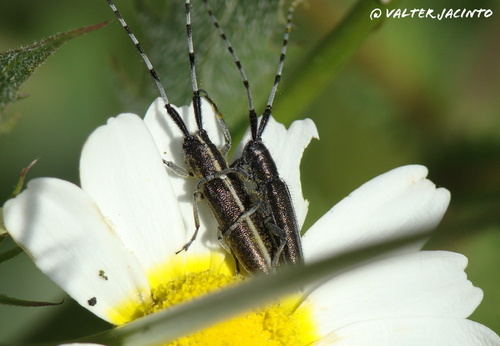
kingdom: Animalia
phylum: Arthropoda
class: Insecta
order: Coleoptera
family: Cerambycidae
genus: Agapanthia
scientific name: Agapanthia suturalis
